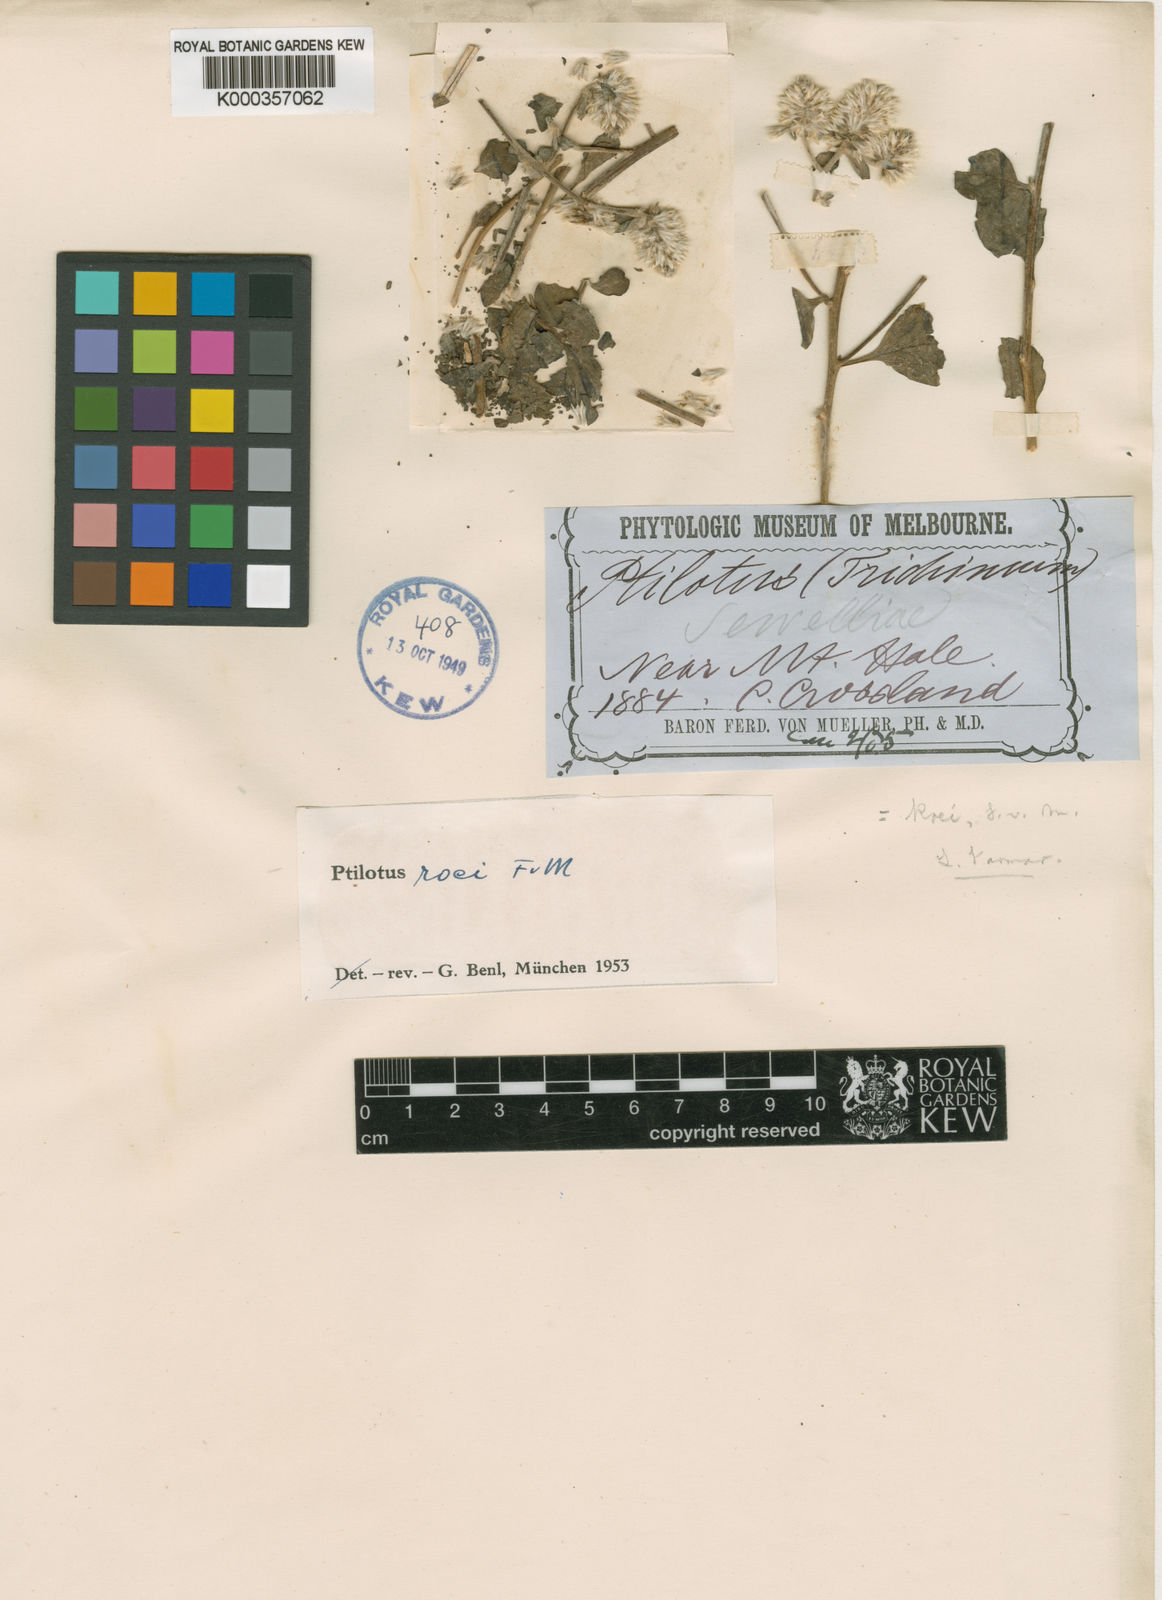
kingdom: Plantae
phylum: Tracheophyta
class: Magnoliopsida
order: Caryophyllales
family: Amaranthaceae
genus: Ptilotus
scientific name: Ptilotus roei
